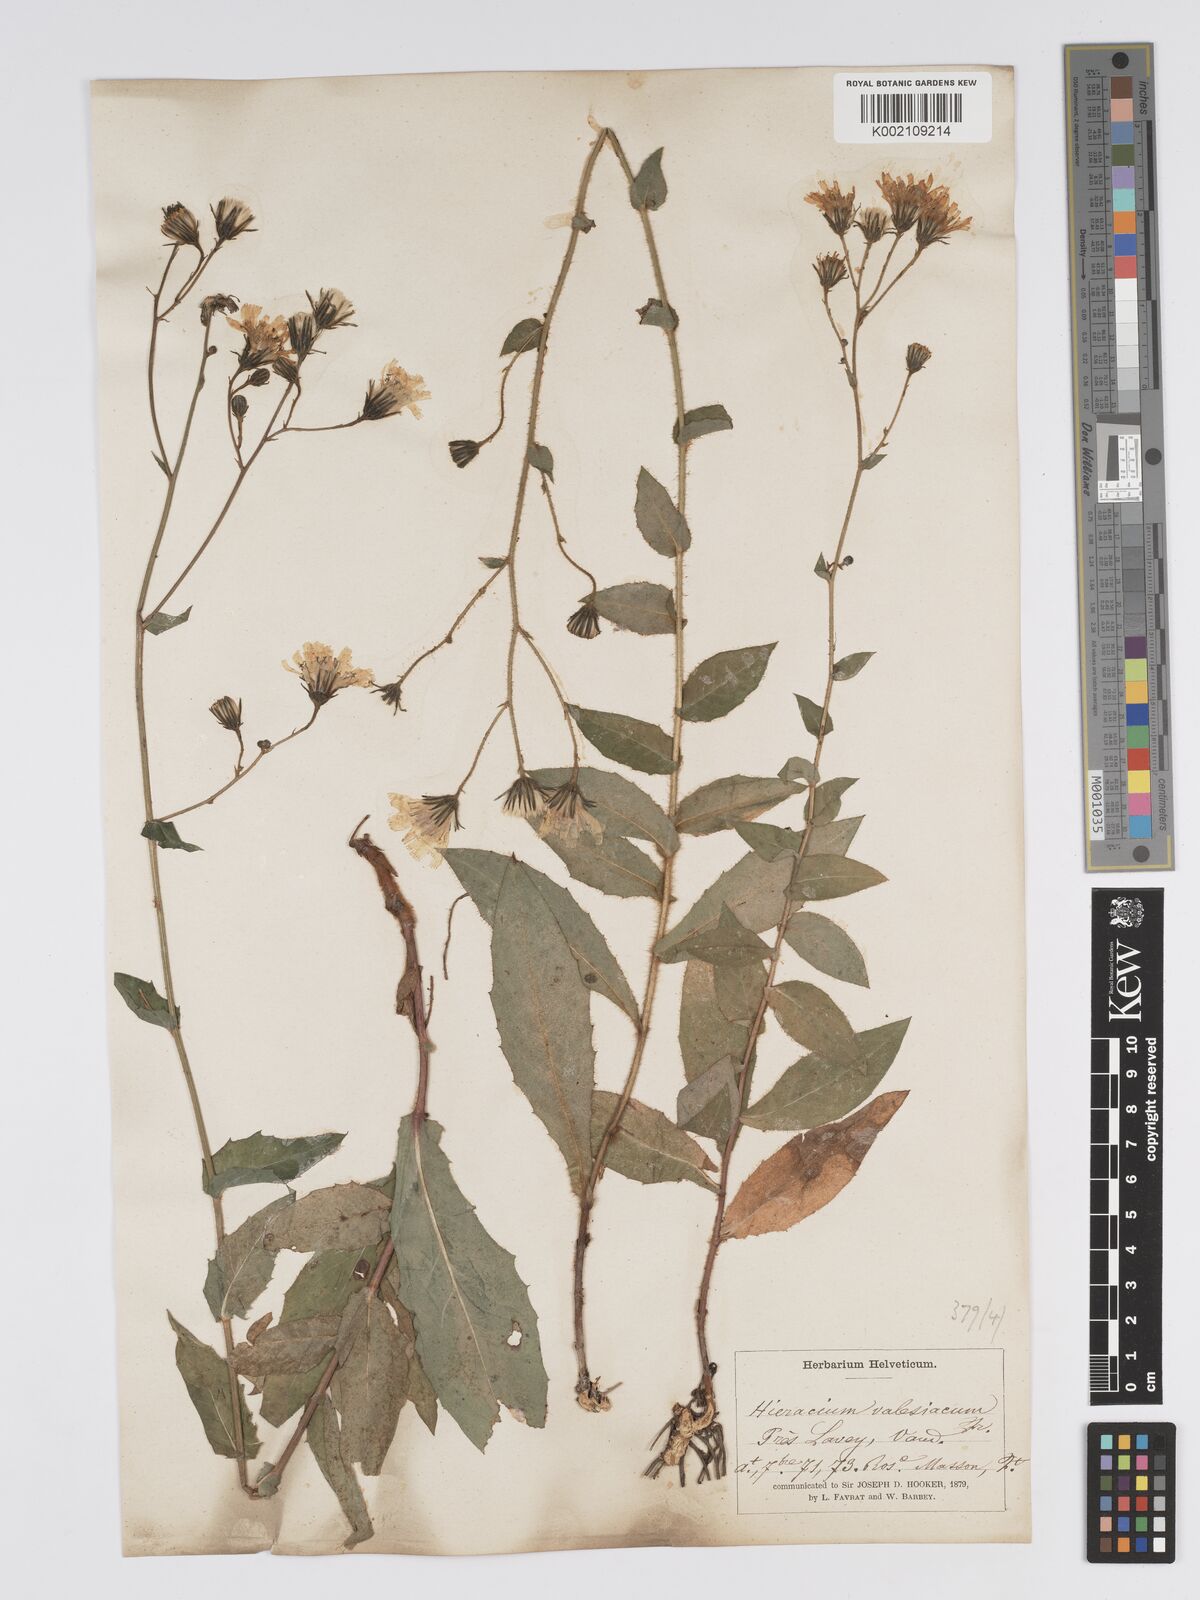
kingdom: Plantae
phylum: Tracheophyta
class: Magnoliopsida
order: Asterales
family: Asteraceae
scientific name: Asteraceae
